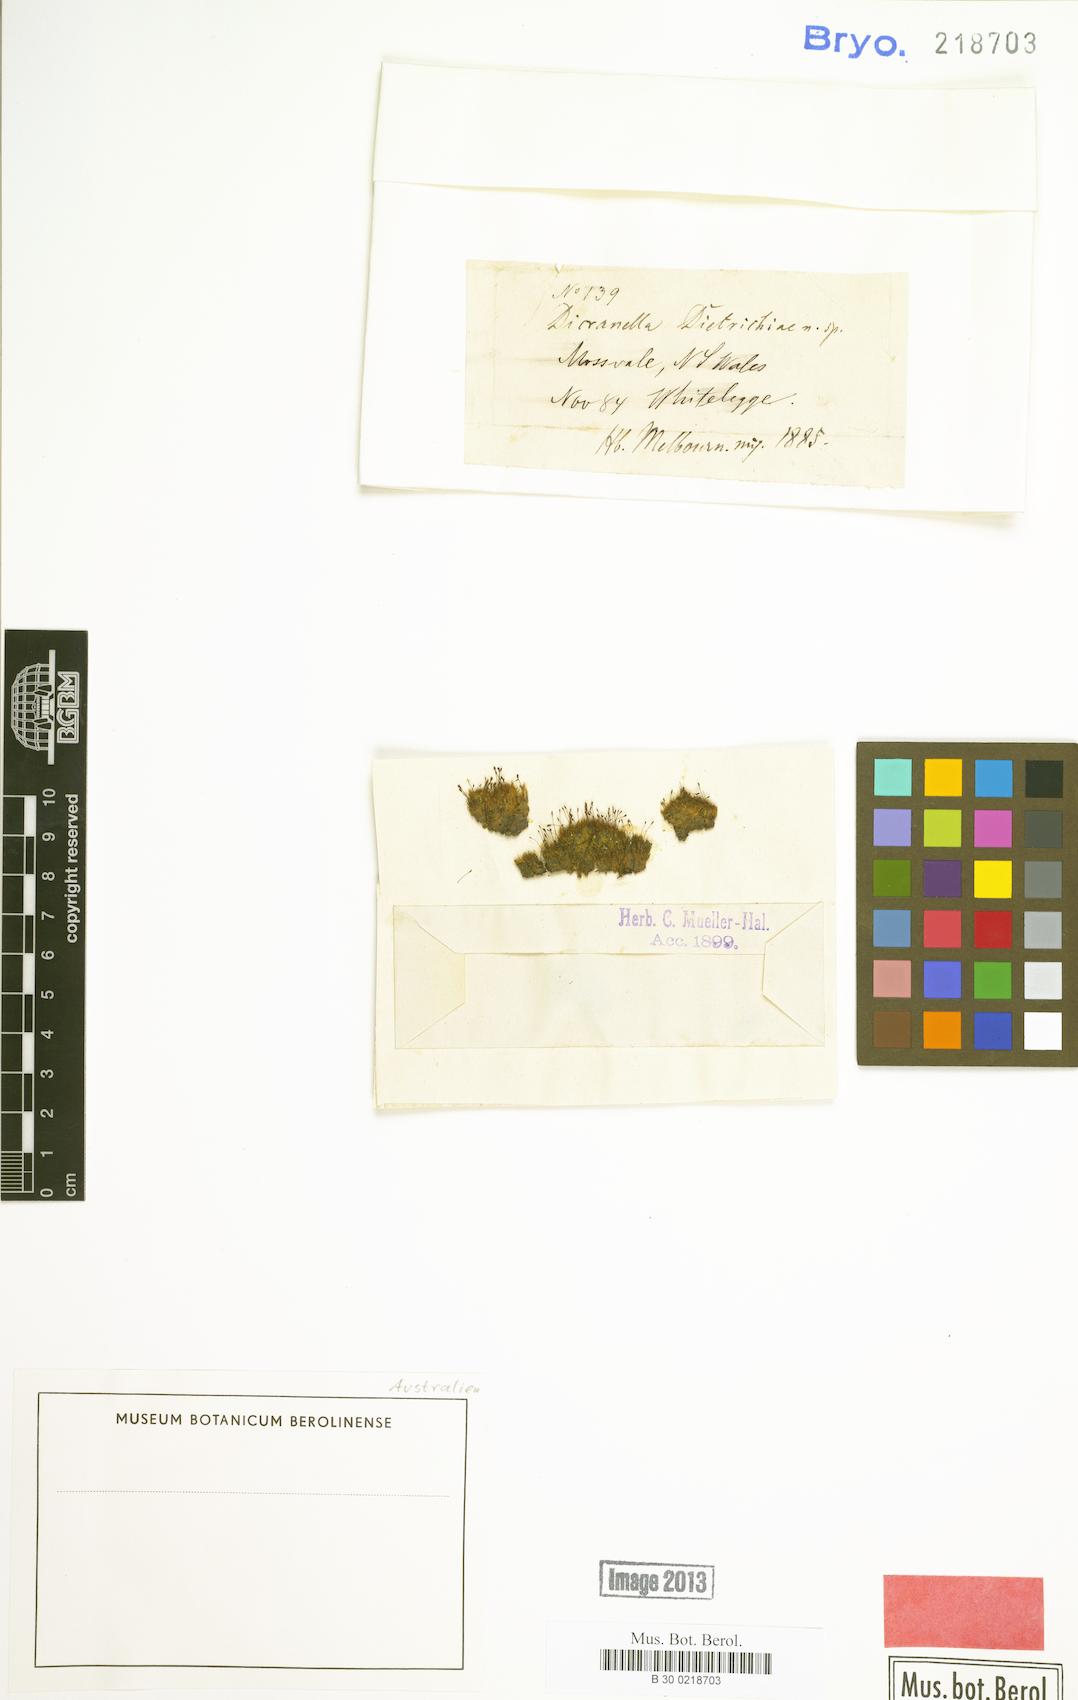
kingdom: Plantae
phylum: Bryophyta
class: Bryopsida
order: Dicranales
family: Dicranellaceae
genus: Dicranella
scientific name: Dicranella dietrichiae
